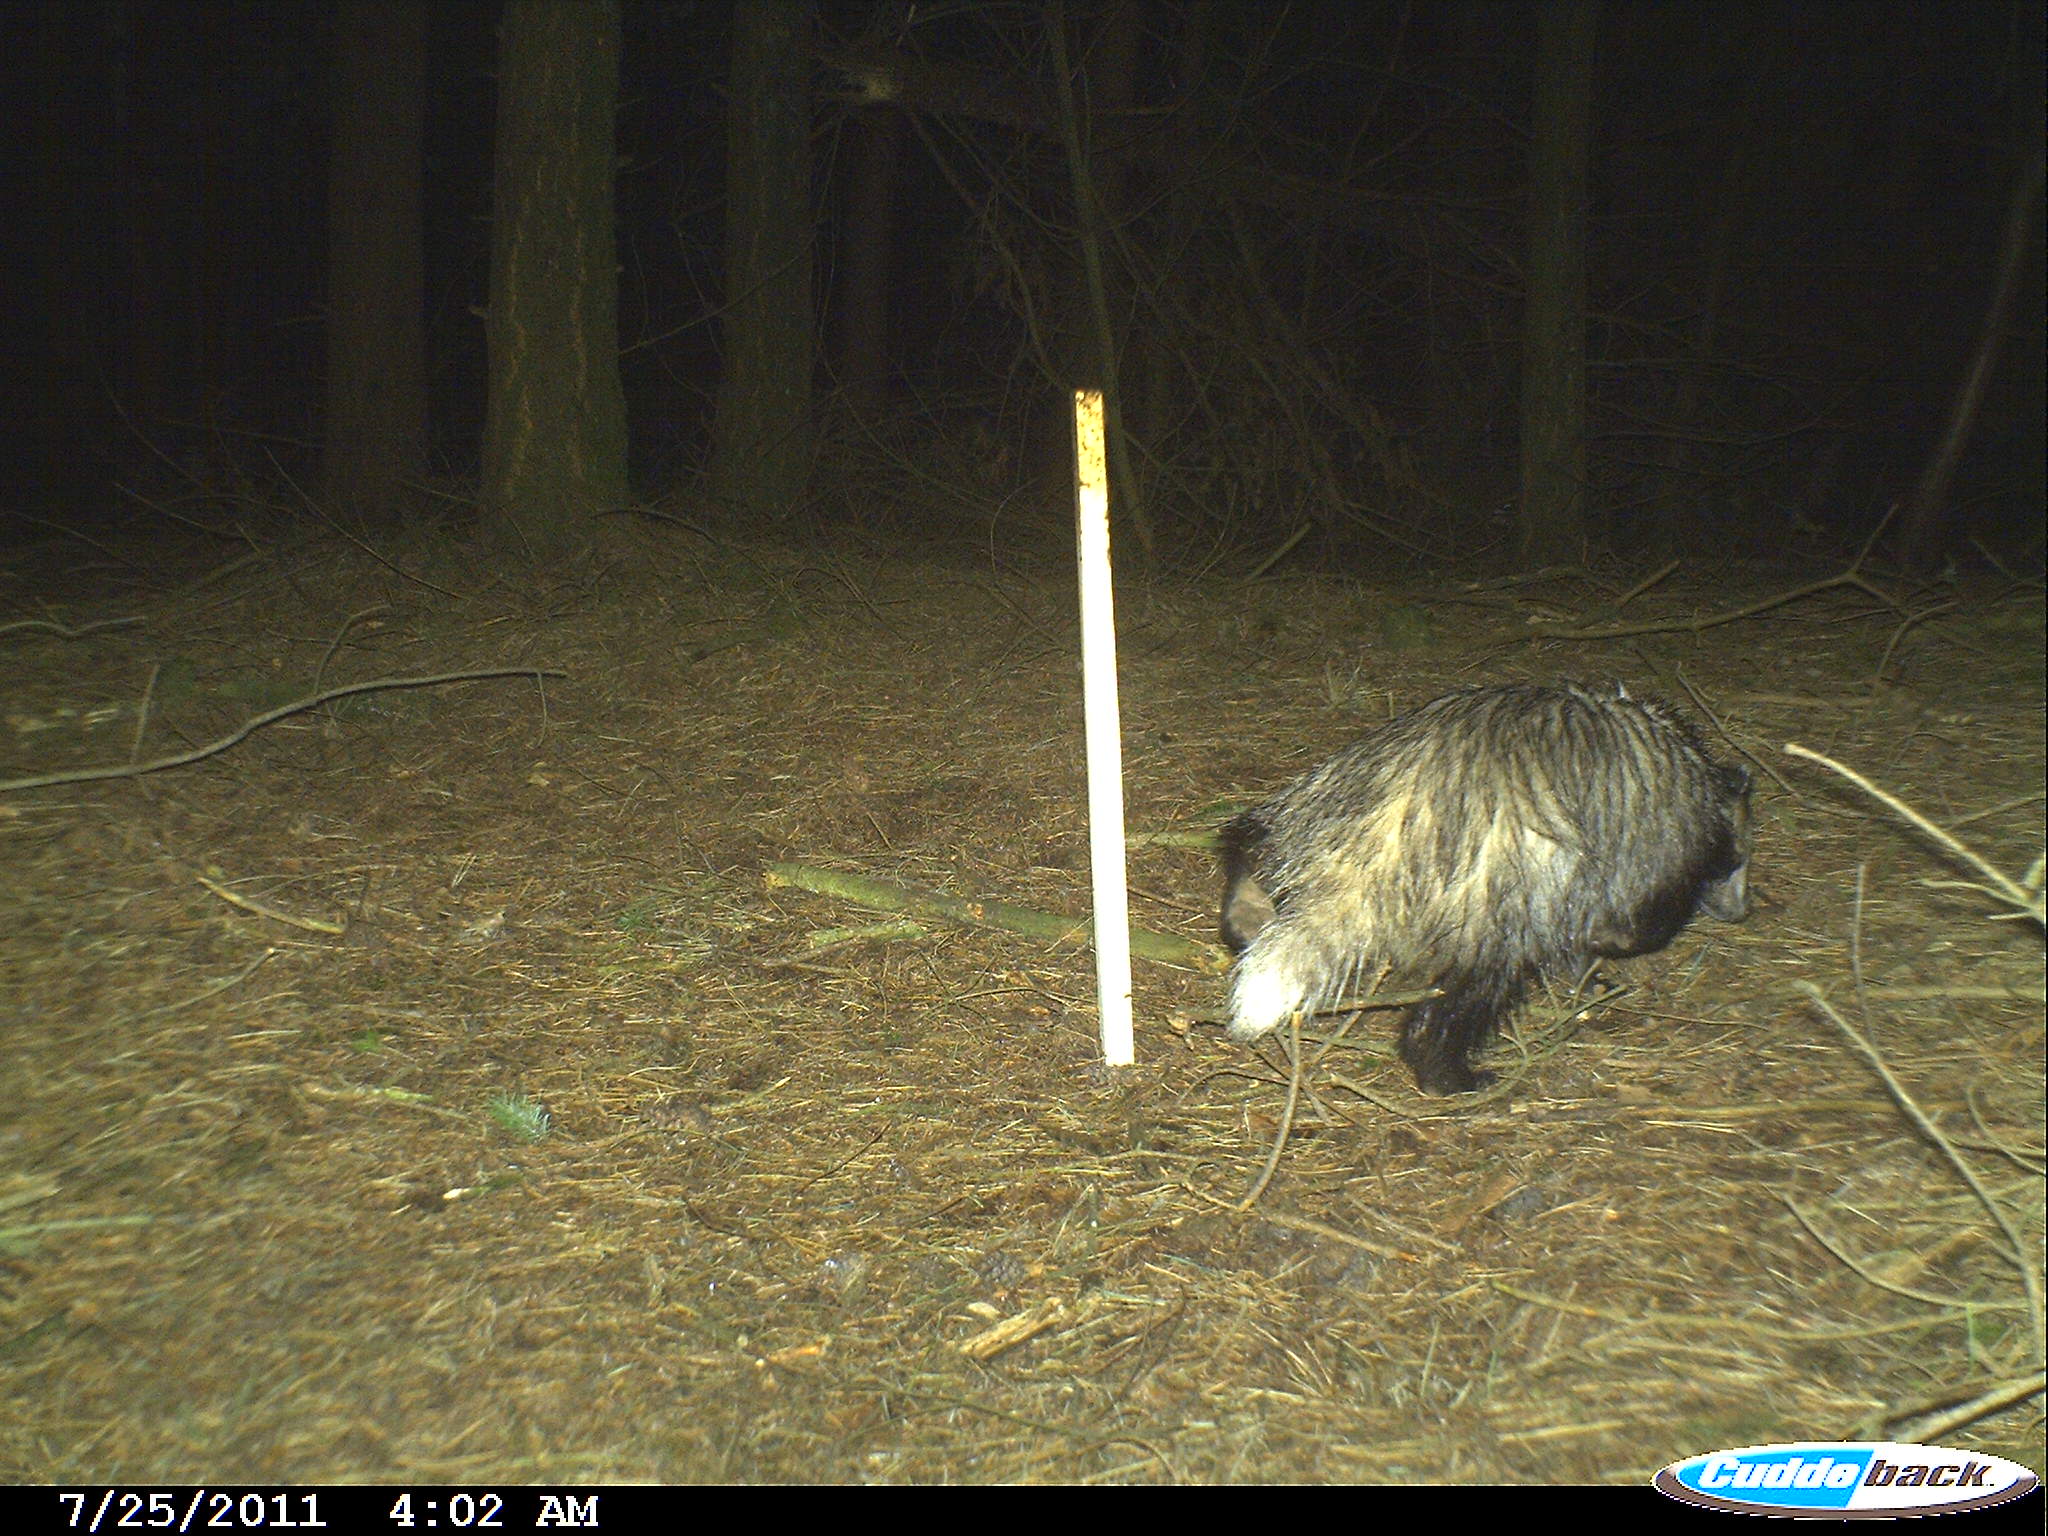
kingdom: Animalia
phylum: Chordata
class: Mammalia
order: Carnivora
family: Mustelidae
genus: Meles
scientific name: Meles meles
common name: Eurasian badger
